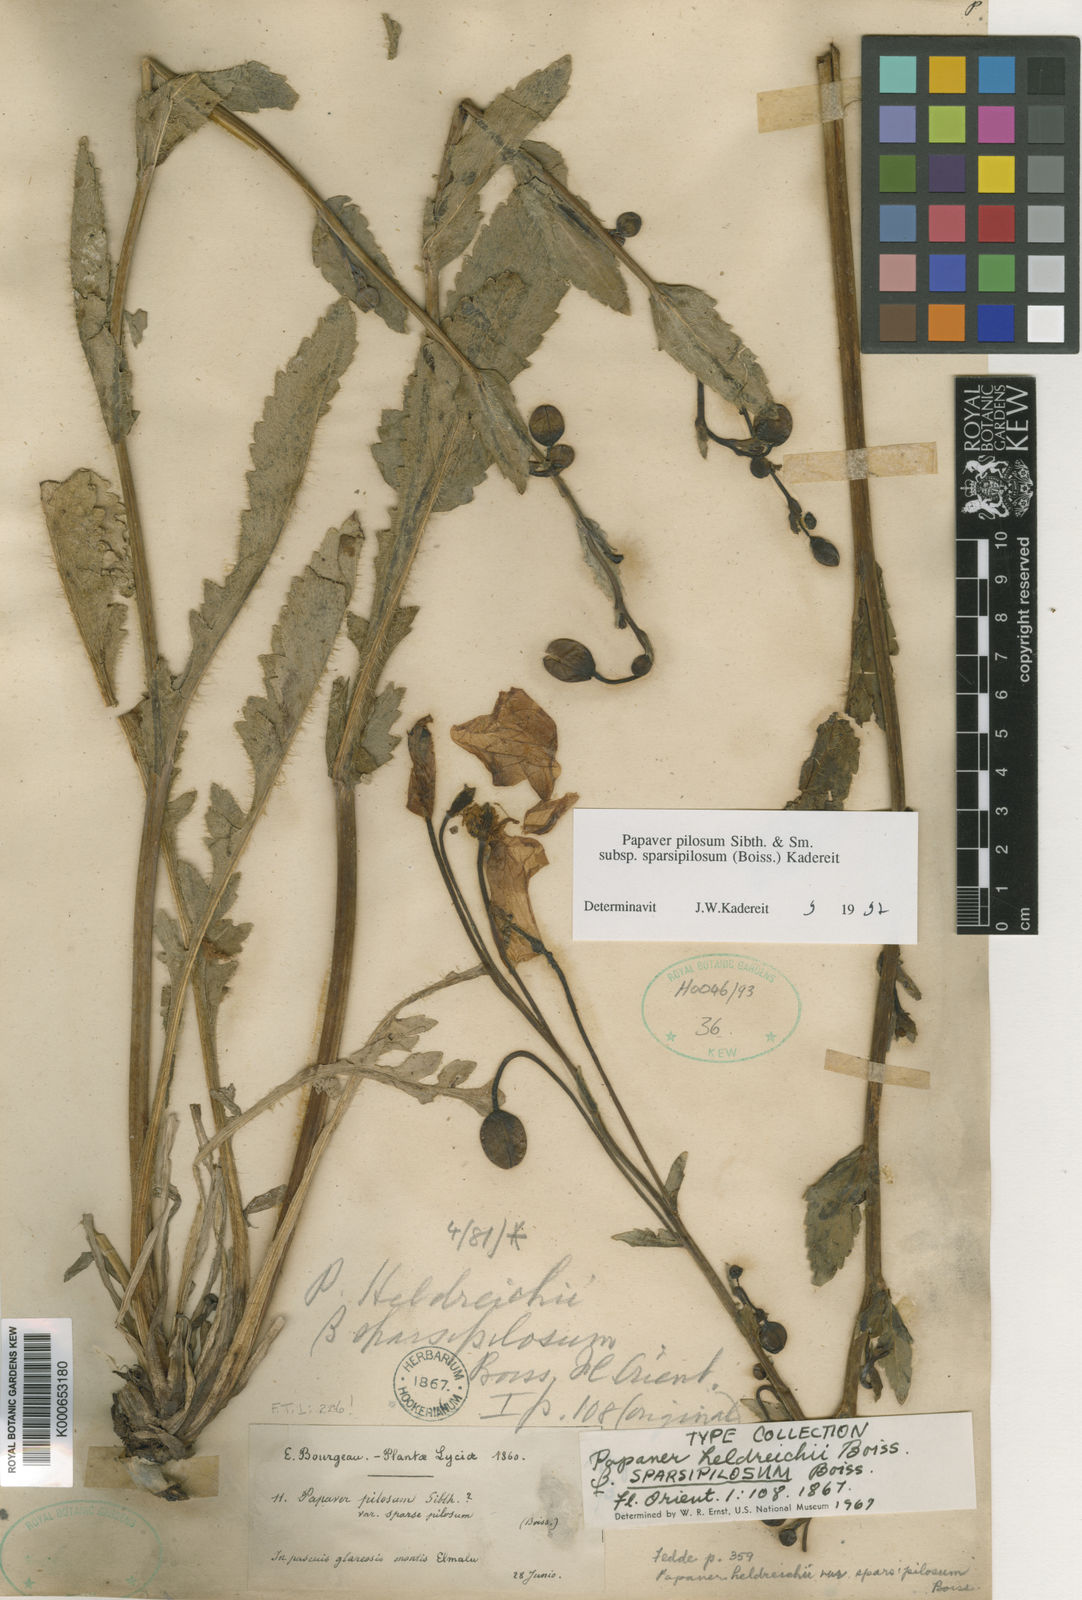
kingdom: Plantae
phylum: Tracheophyta
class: Magnoliopsida
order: Ranunculales
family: Papaveraceae
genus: Papaver
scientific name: Papaver pilosum
